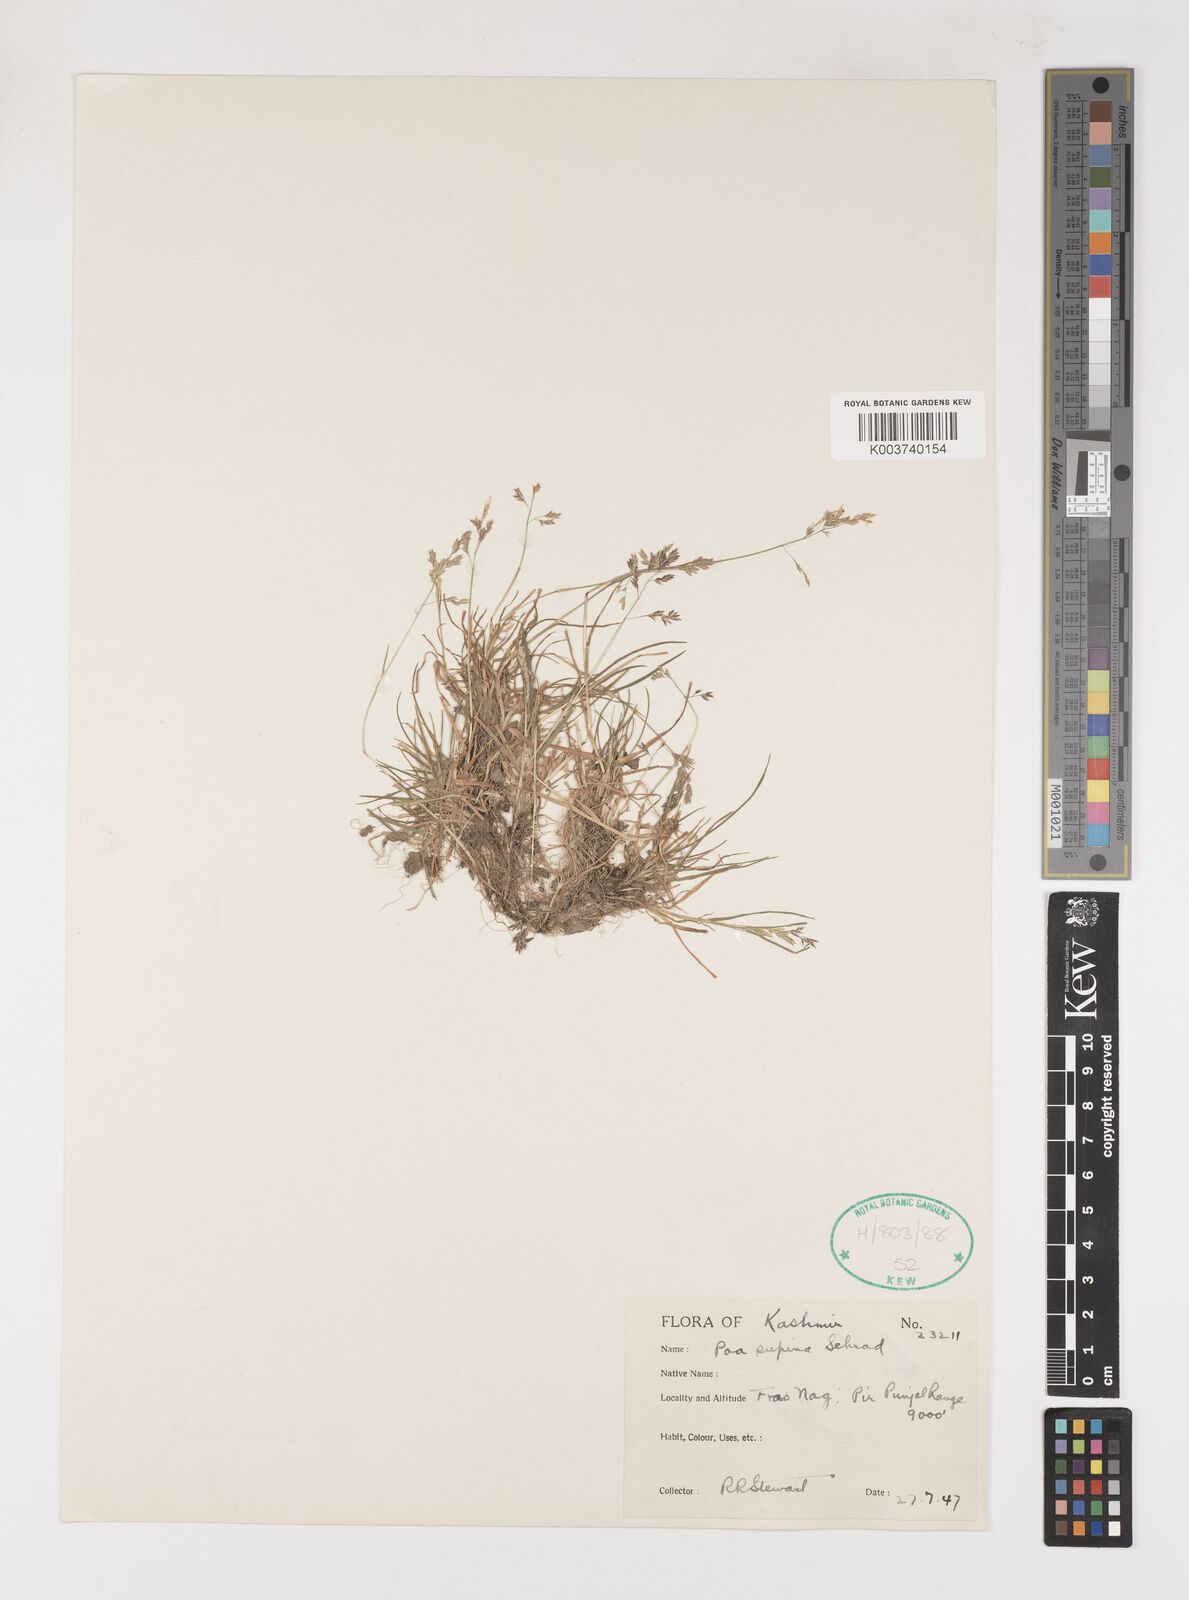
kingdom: Plantae
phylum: Tracheophyta
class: Liliopsida
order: Poales
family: Poaceae
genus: Poa
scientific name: Poa supina
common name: Supina bluegrass
